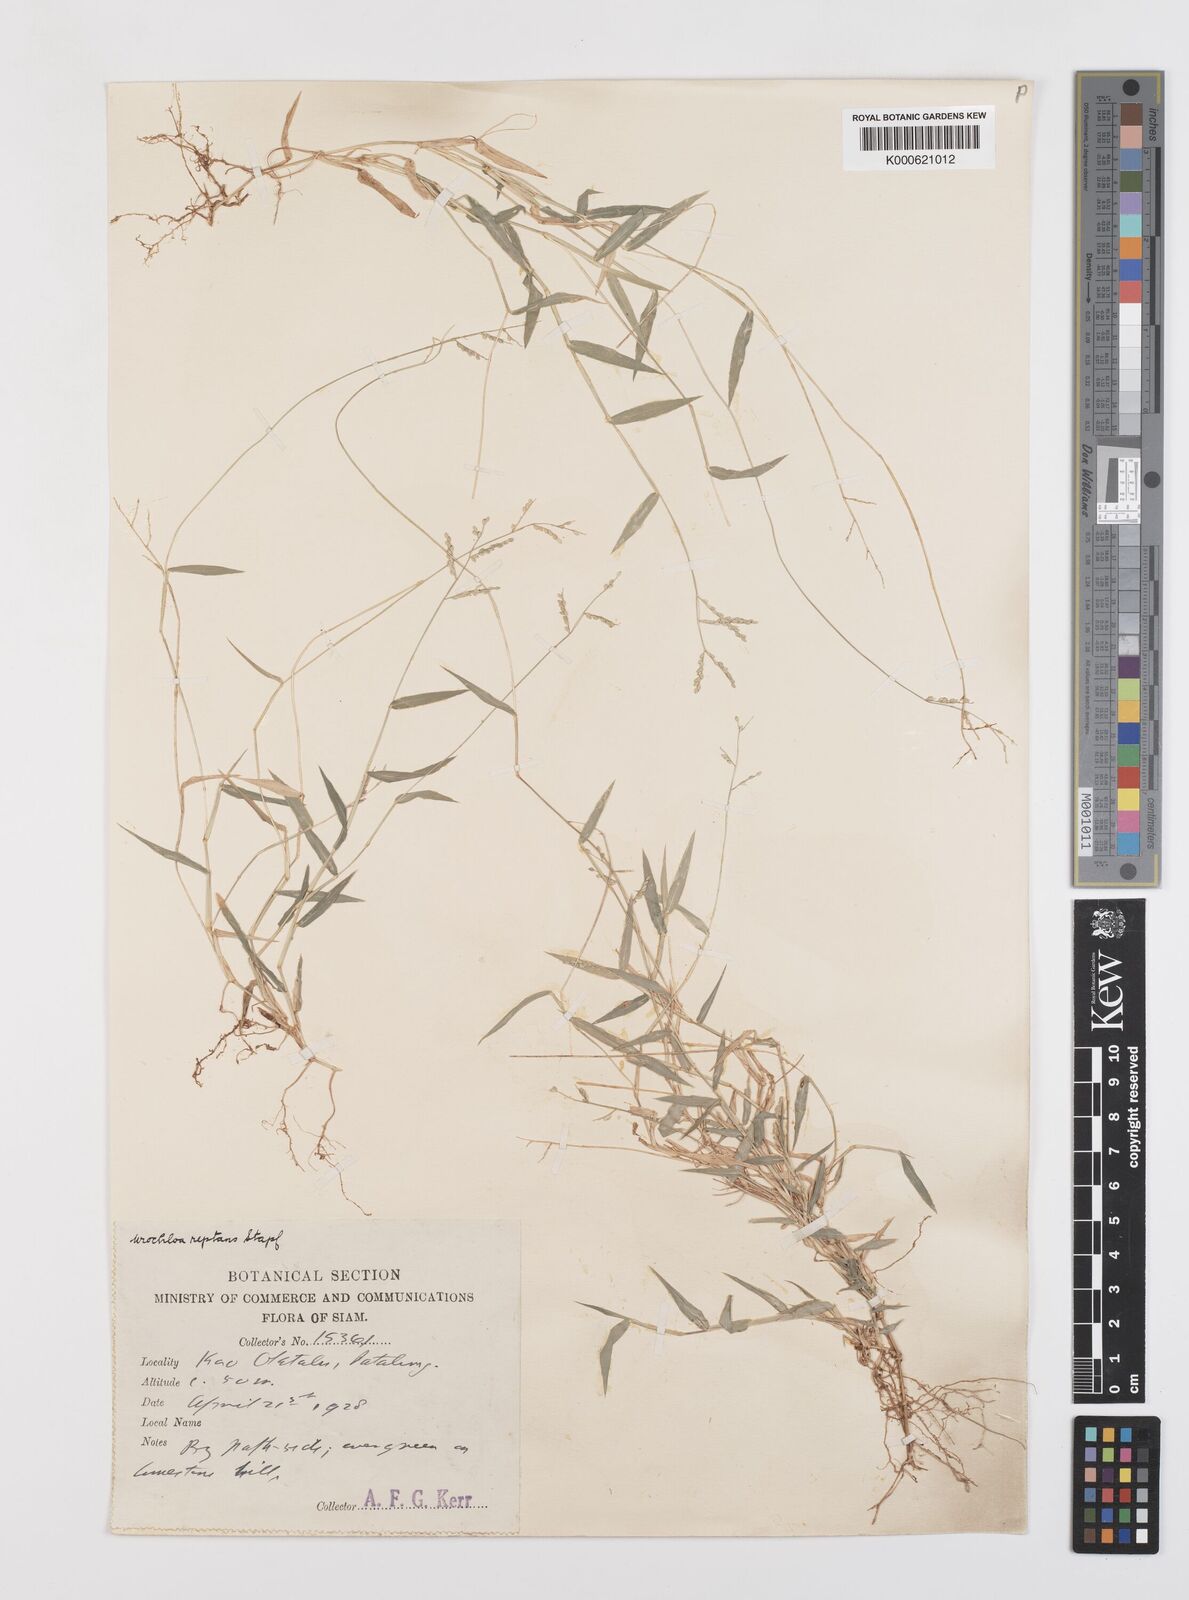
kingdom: Plantae
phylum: Tracheophyta
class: Liliopsida
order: Poales
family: Poaceae
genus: Urochloa
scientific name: Urochloa reptans
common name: Sprawling signalgrass
